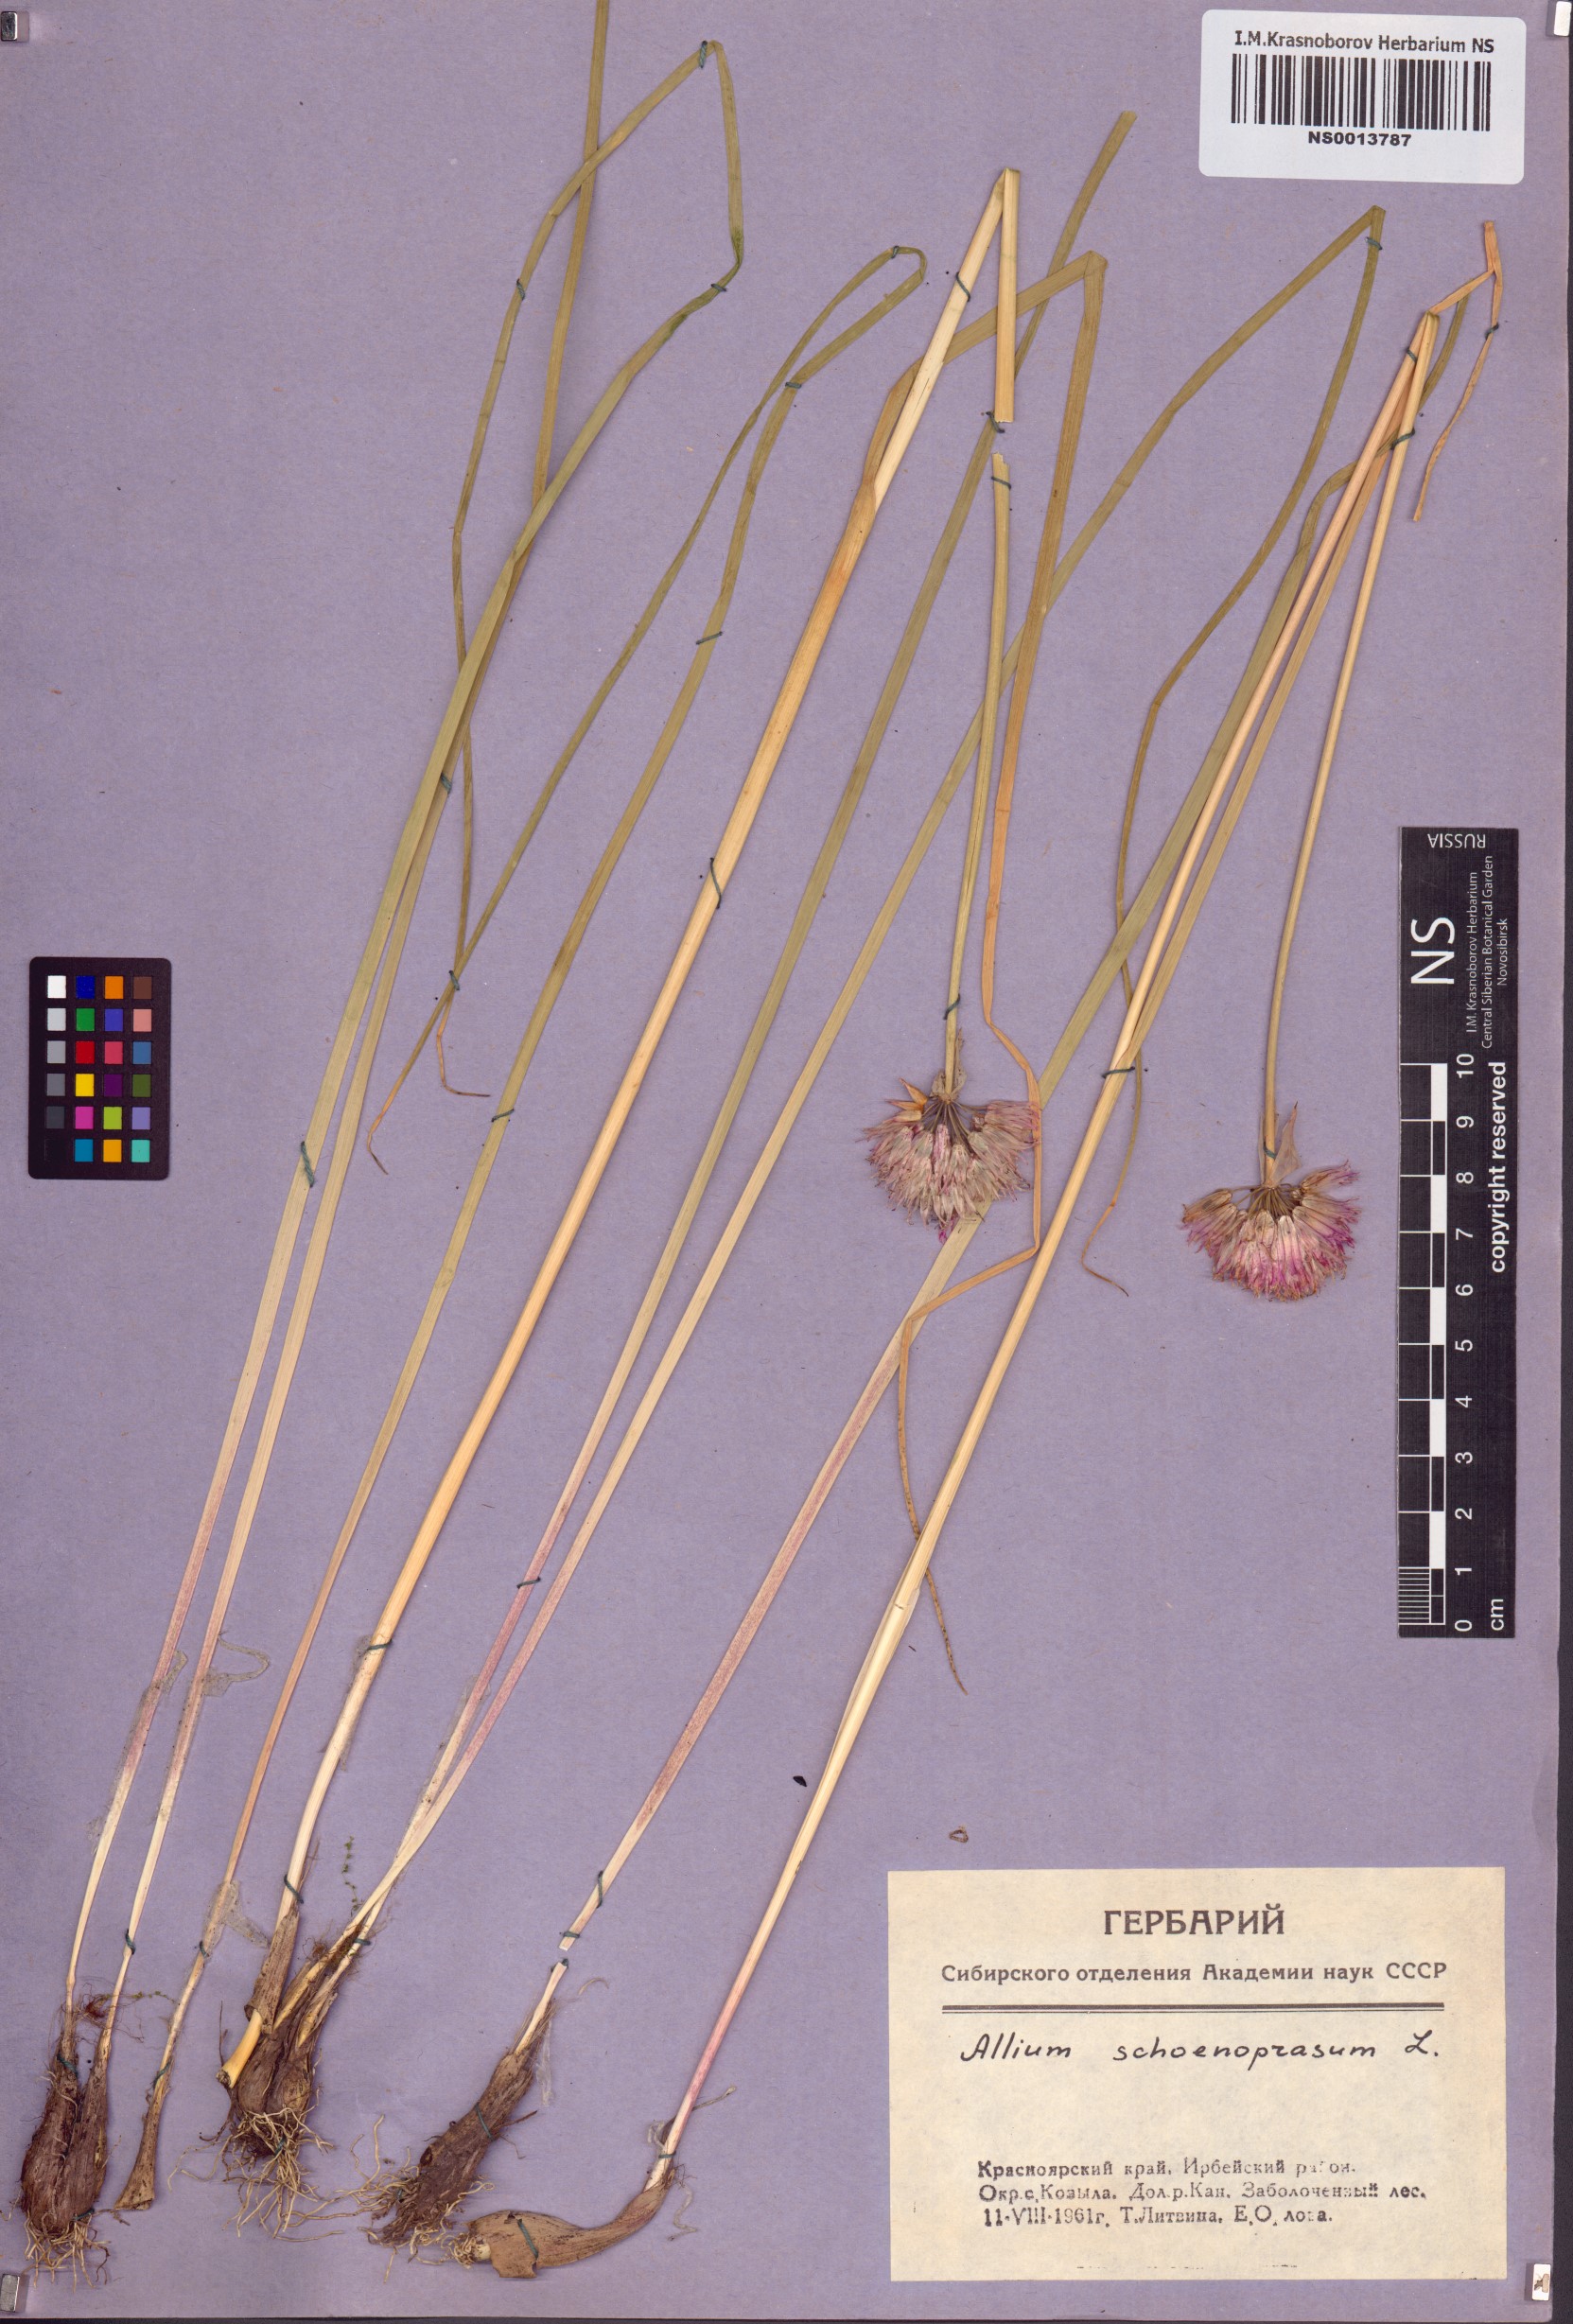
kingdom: Plantae
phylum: Tracheophyta
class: Liliopsida
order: Asparagales
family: Amaryllidaceae
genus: Allium
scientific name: Allium schoenoprasum
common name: Chives
